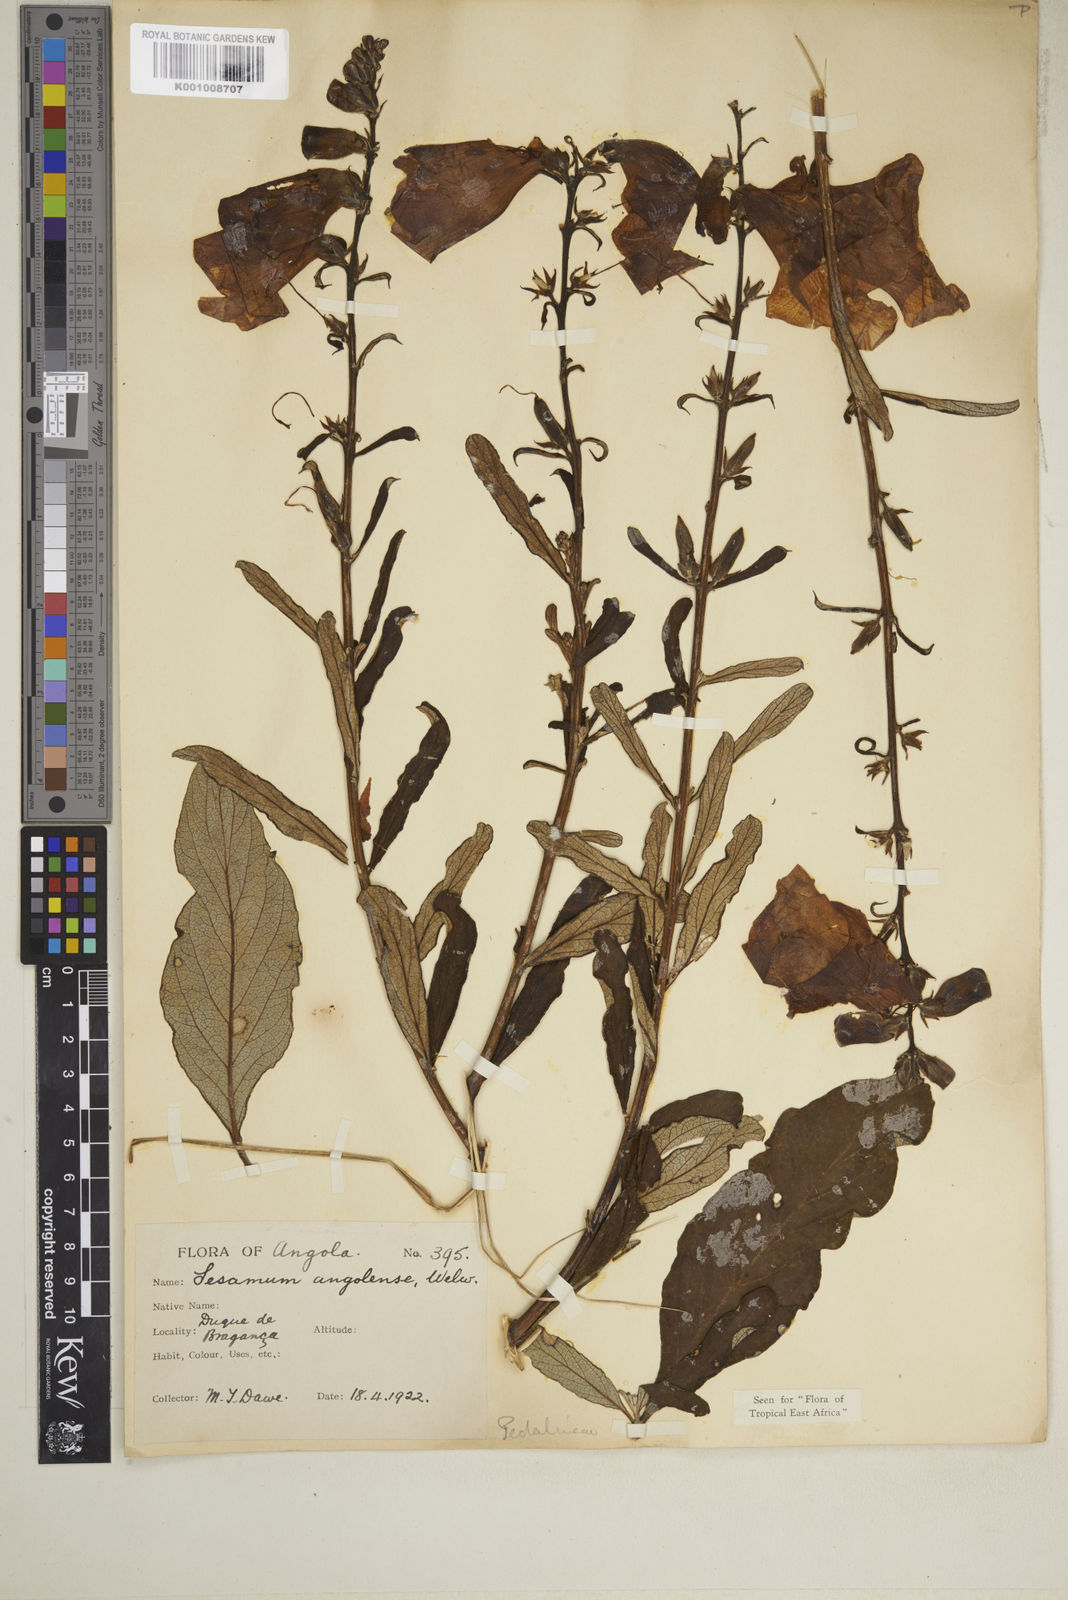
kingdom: Plantae
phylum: Tracheophyta
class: Magnoliopsida
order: Lamiales
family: Pedaliaceae
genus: Sesamum
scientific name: Sesamum angolense
